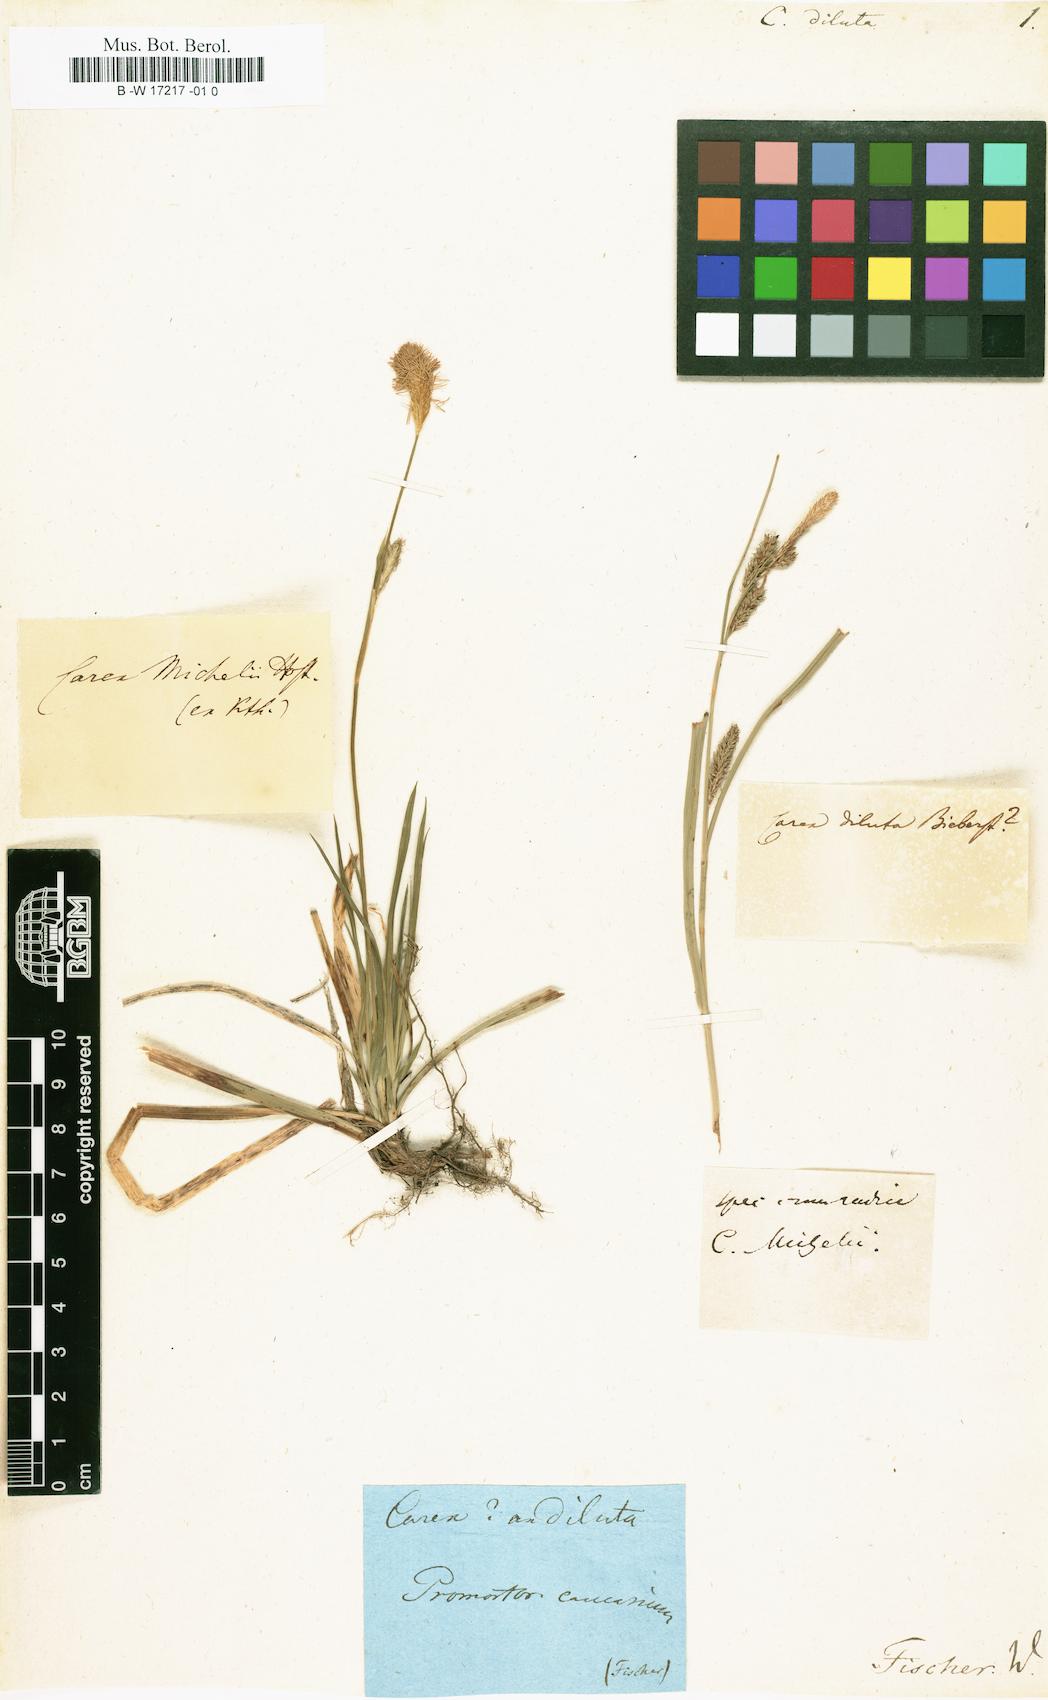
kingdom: Plantae
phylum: Tracheophyta
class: Liliopsida
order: Poales
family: Cyperaceae
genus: Carex
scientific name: Carex diluta
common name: Sedge
